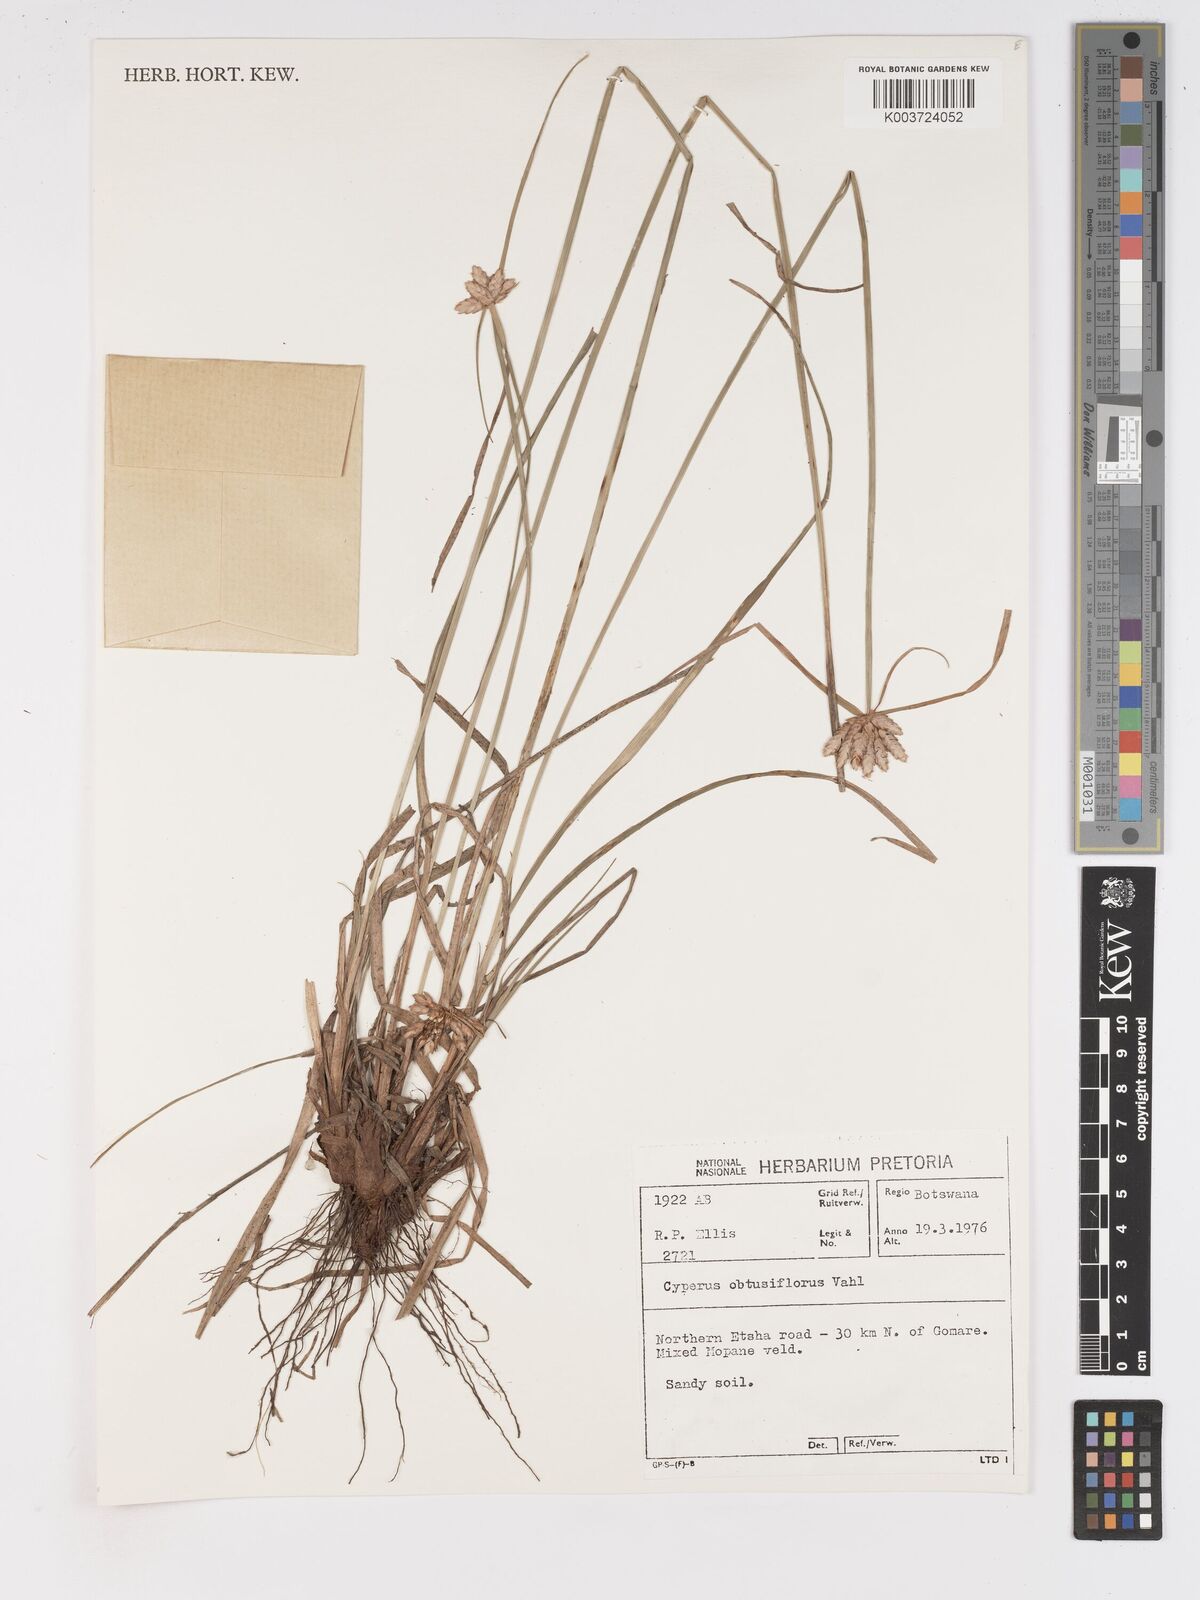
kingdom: Plantae
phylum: Tracheophyta
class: Liliopsida
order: Poales
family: Cyperaceae
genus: Cyperus
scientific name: Cyperus niveus
